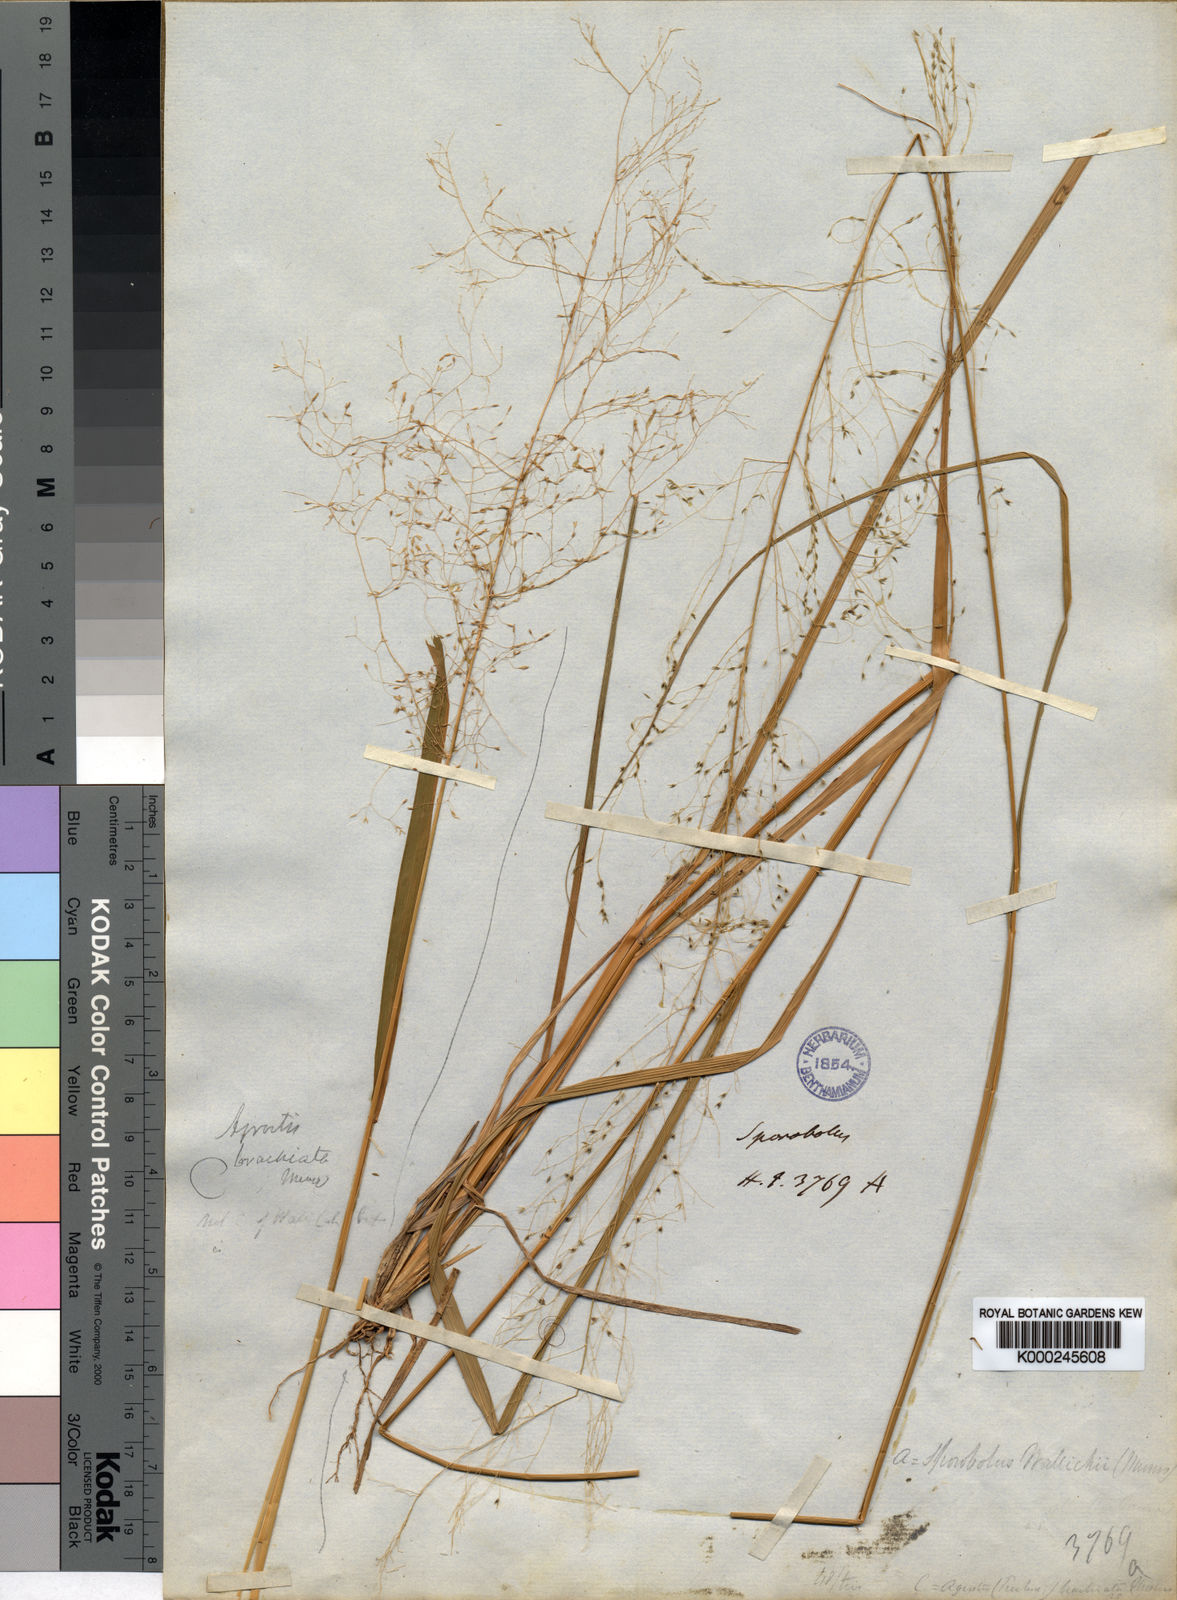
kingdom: Plantae
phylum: Tracheophyta
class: Liliopsida
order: Poales
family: Poaceae
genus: Sporobolus
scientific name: Sporobolus
